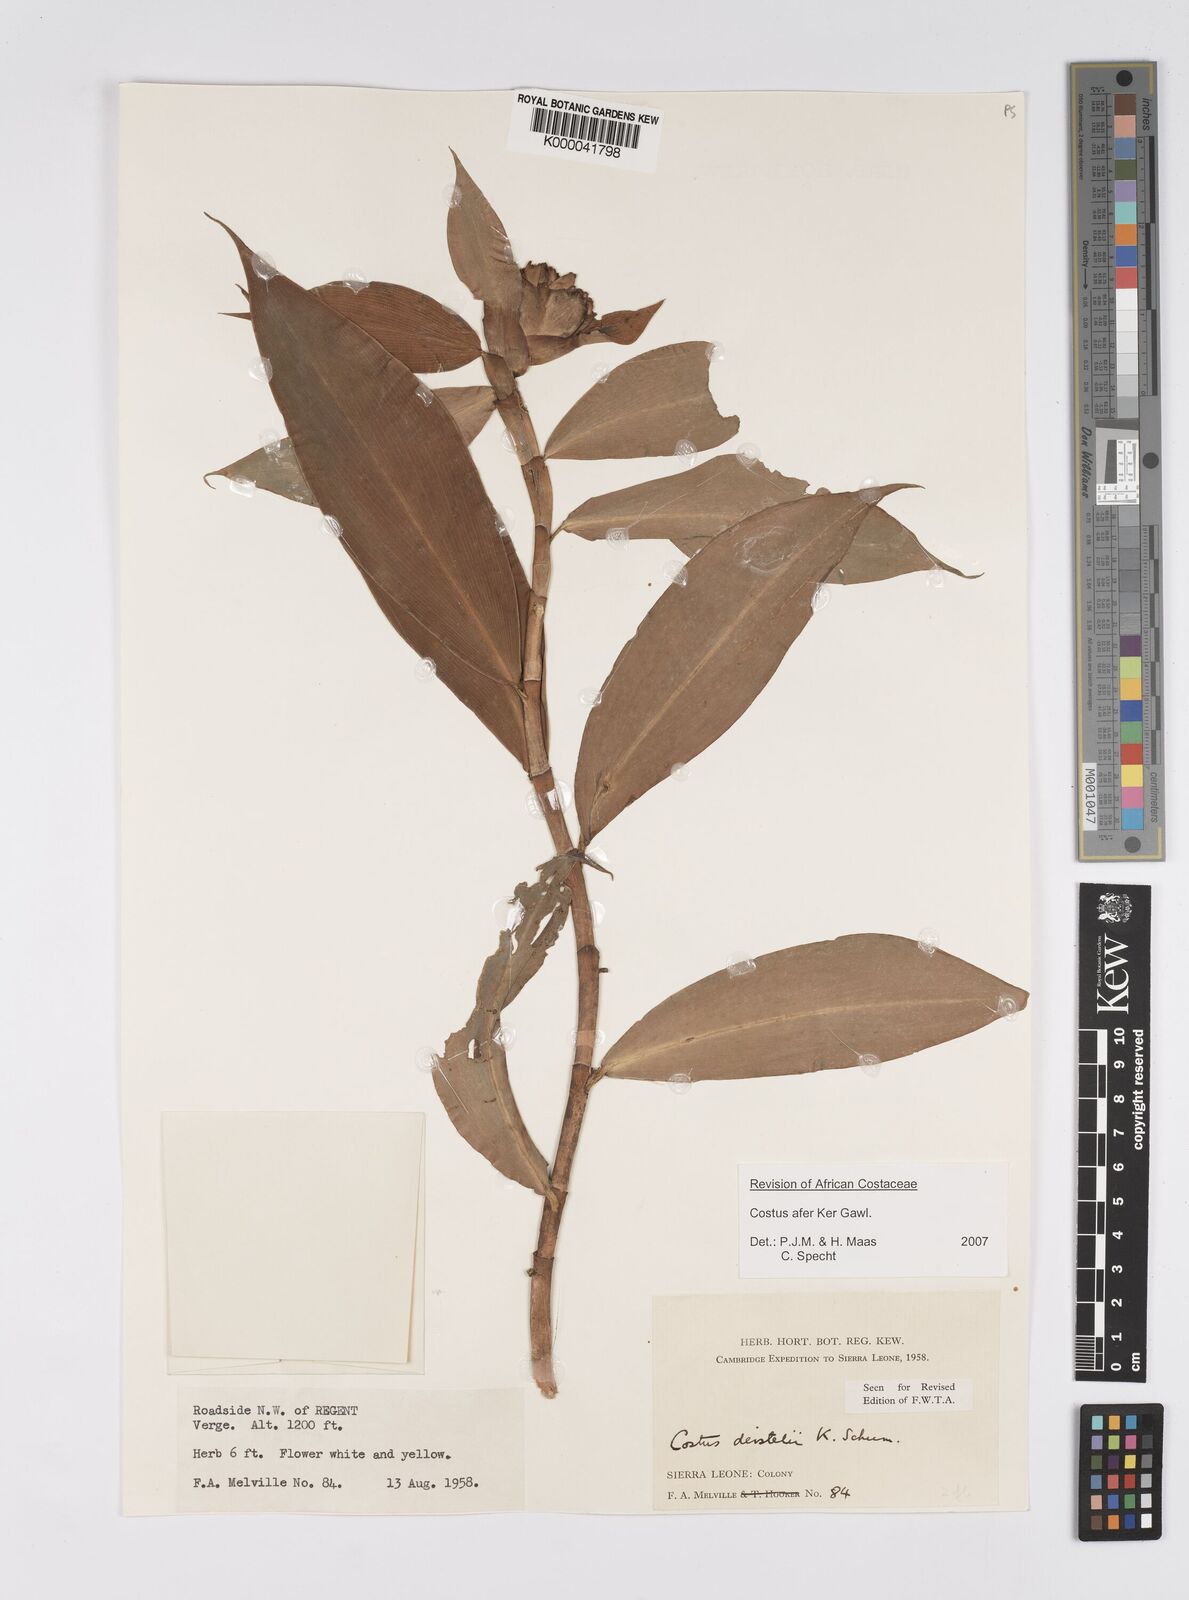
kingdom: Plantae
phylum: Tracheophyta
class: Liliopsida
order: Zingiberales
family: Costaceae
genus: Costus
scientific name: Costus afer
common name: Spiral-ginger
